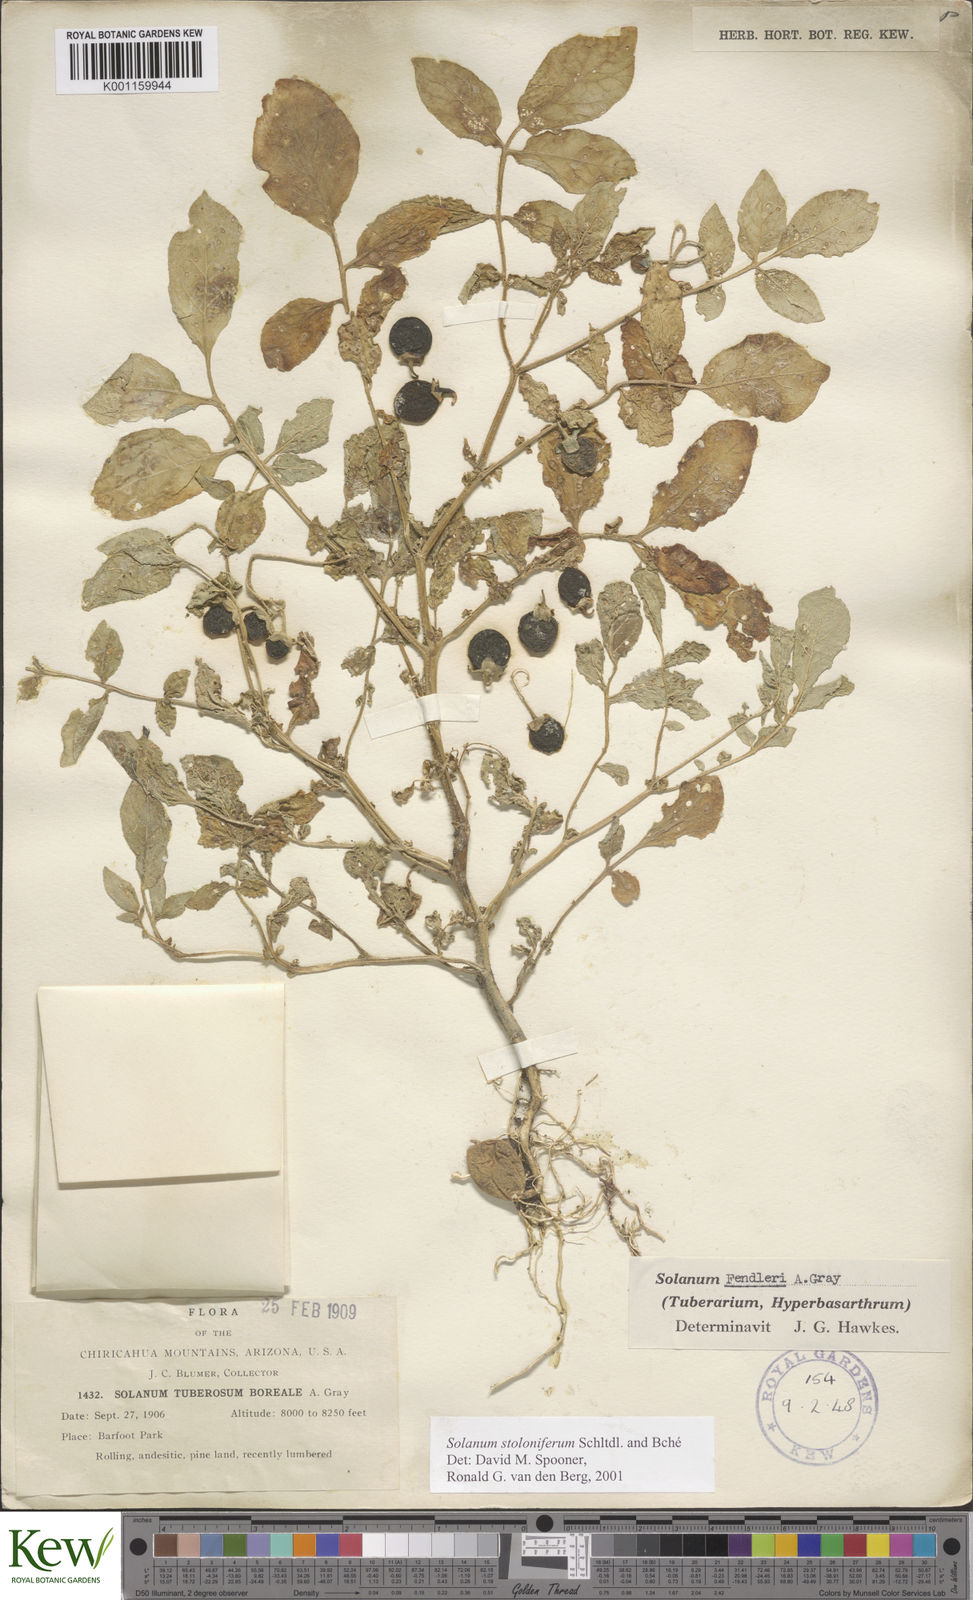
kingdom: Plantae
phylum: Tracheophyta
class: Magnoliopsida
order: Solanales
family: Solanaceae
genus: Solanum
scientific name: Solanum stoloniferum
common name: Fendler's nighshade
